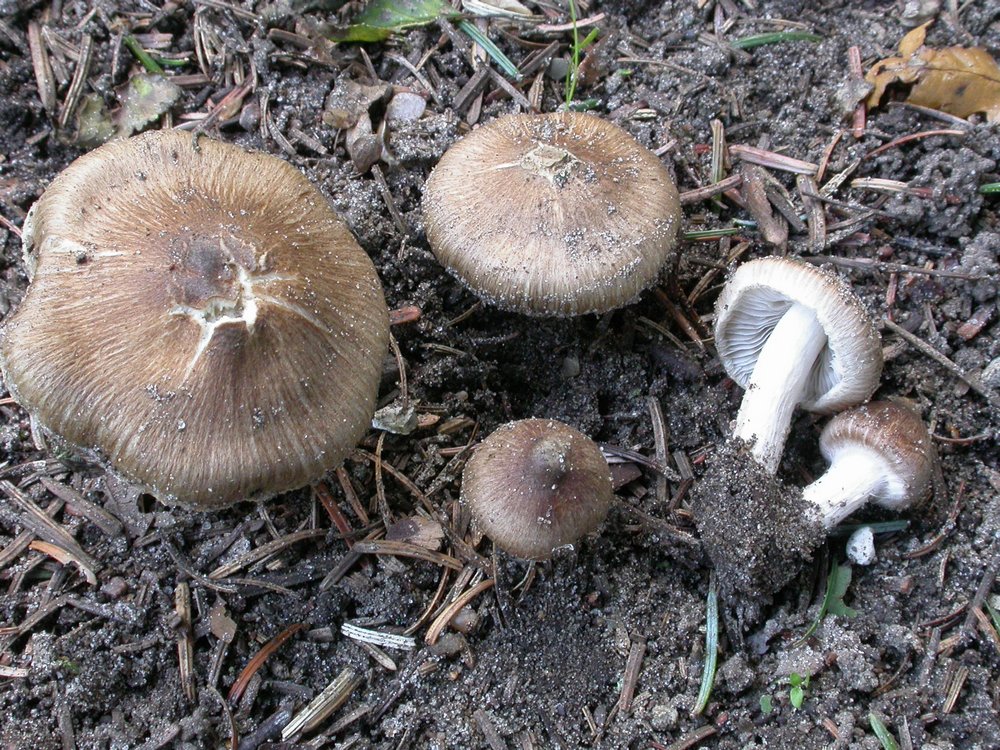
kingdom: Fungi
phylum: Basidiomycota
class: Agaricomycetes
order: Agaricales
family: Inocybaceae
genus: Inocybe
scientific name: Inocybe
